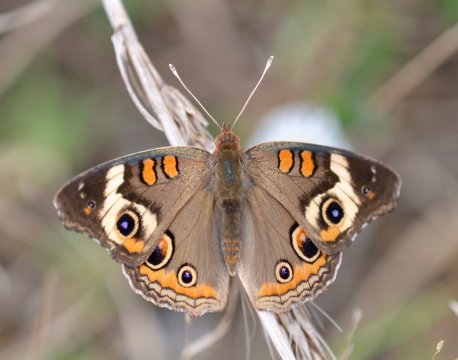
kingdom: Animalia
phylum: Arthropoda
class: Insecta
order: Lepidoptera
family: Nymphalidae
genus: Junonia
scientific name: Junonia coenia
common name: Common Buckeye
